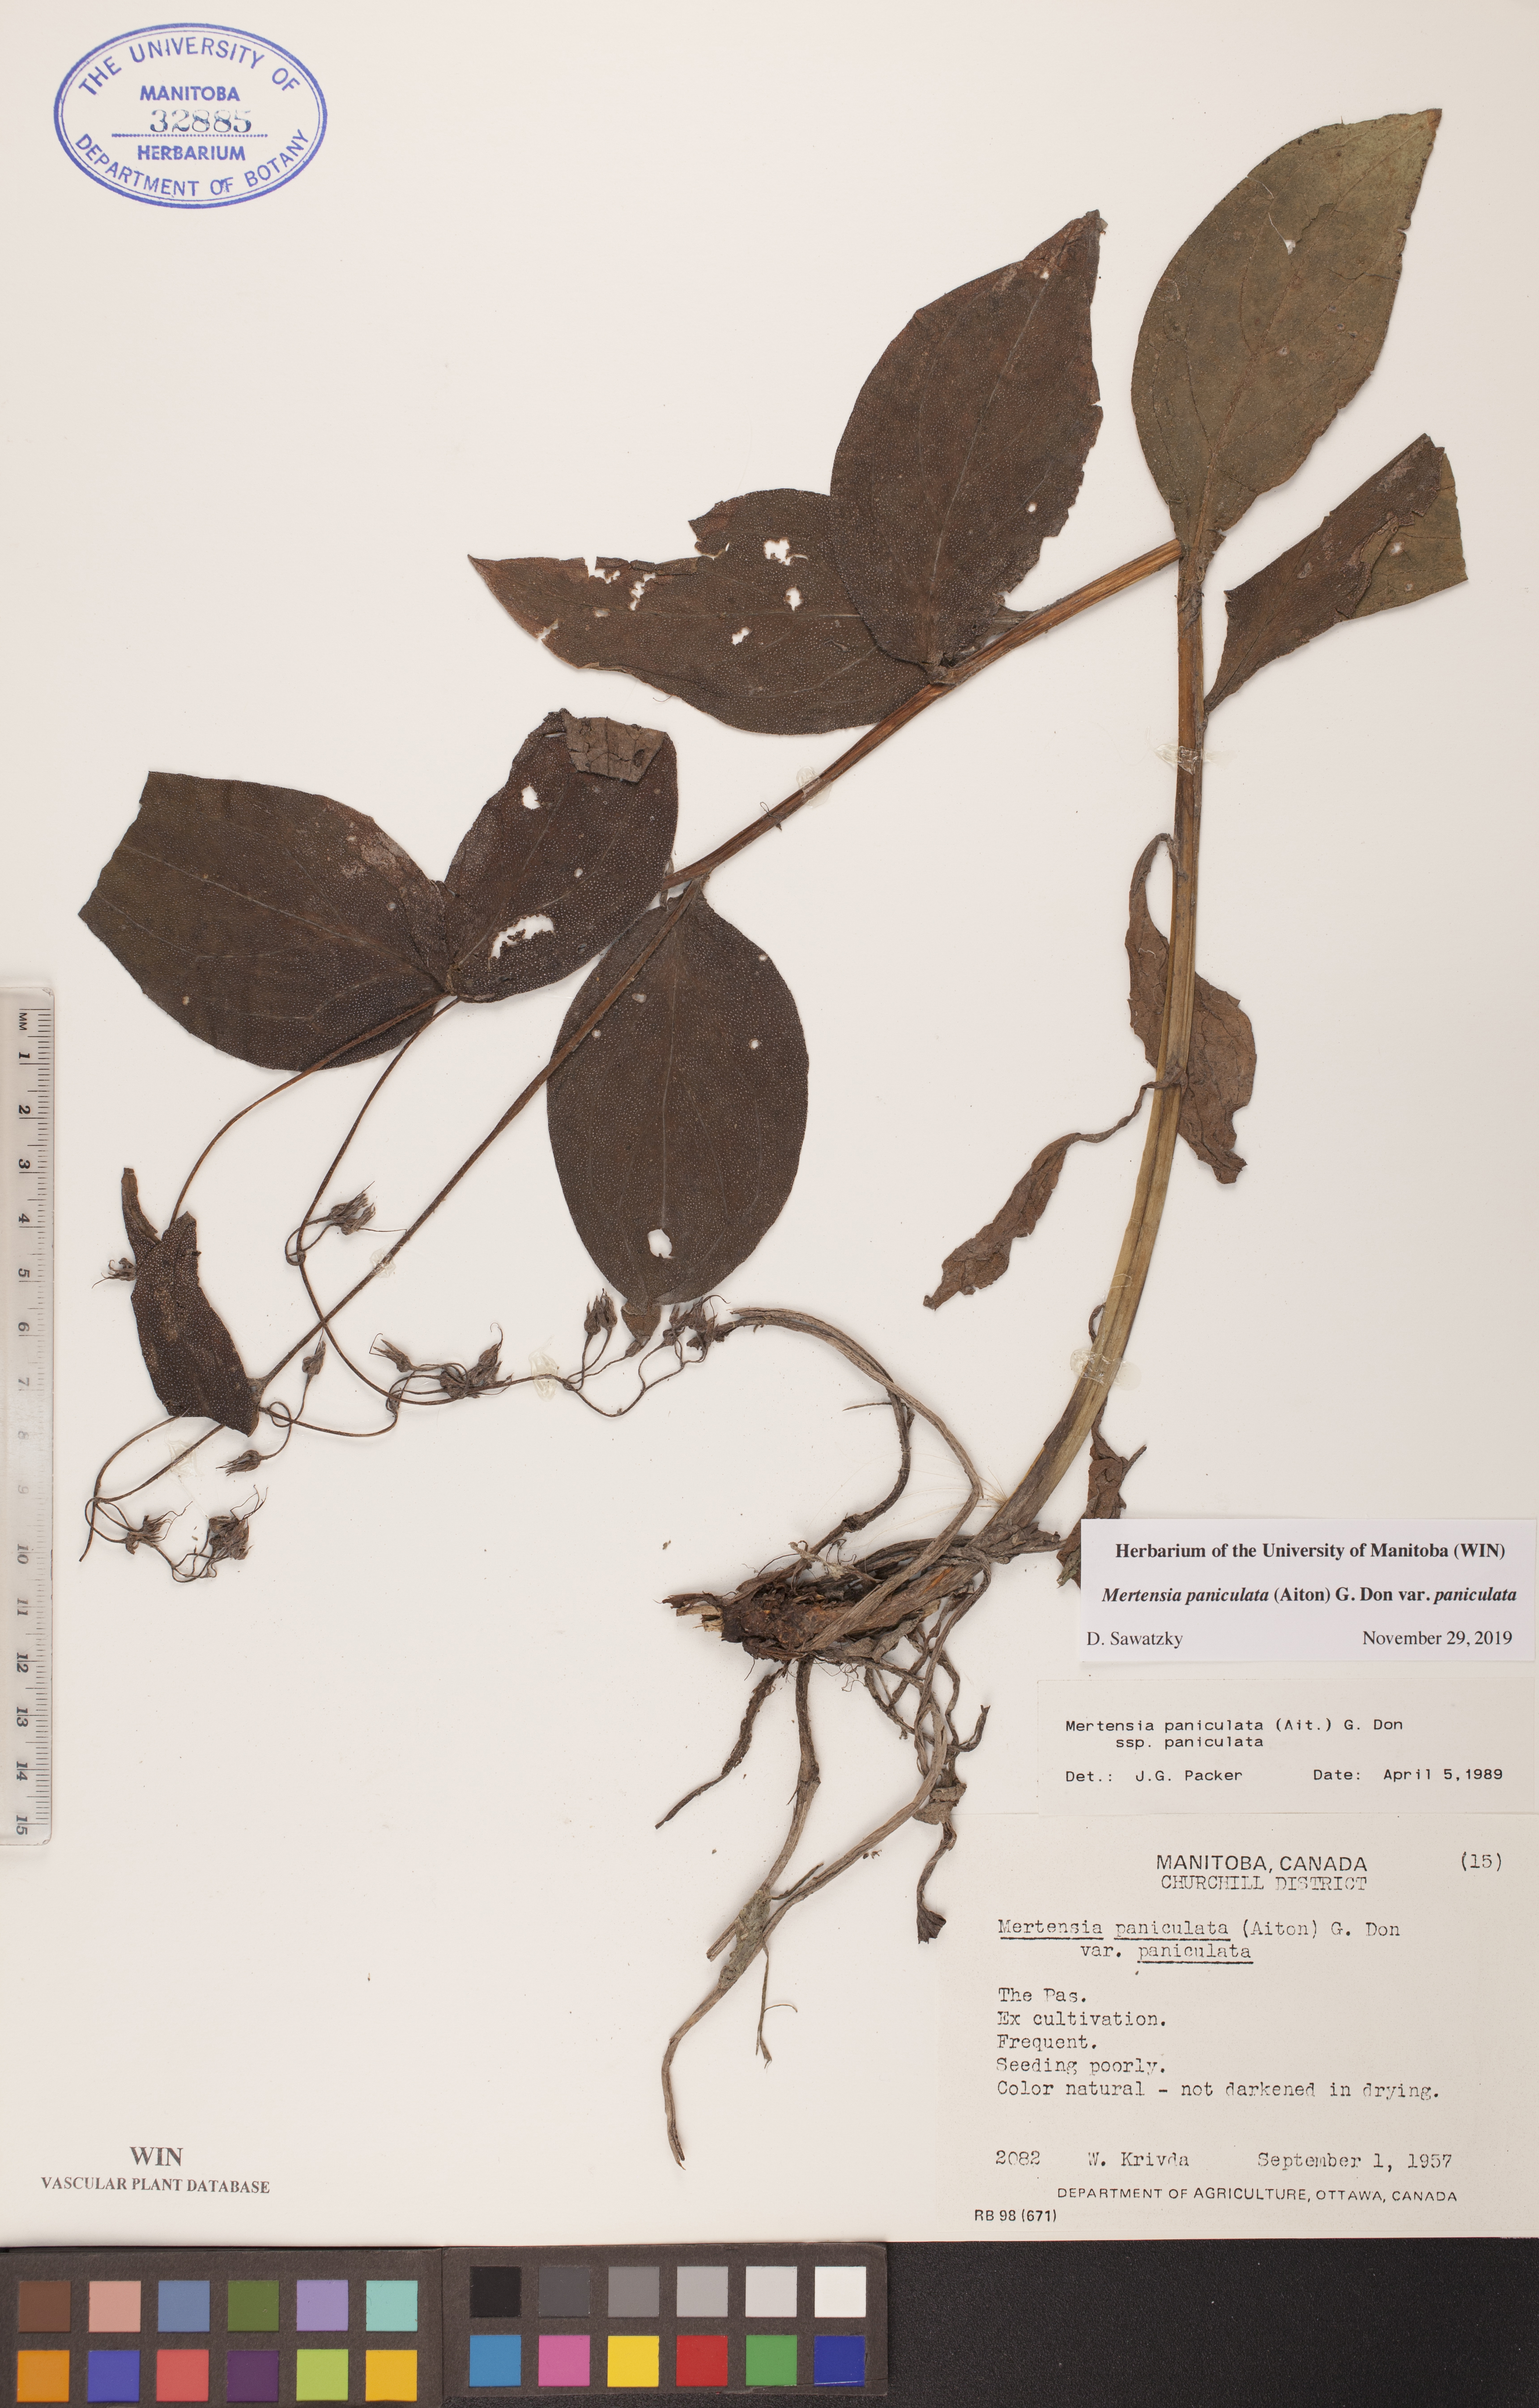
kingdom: Plantae
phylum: Tracheophyta
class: Magnoliopsida
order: Boraginales
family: Boraginaceae
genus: Mertensia
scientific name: Mertensia paniculata
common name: Panicled bluebells
